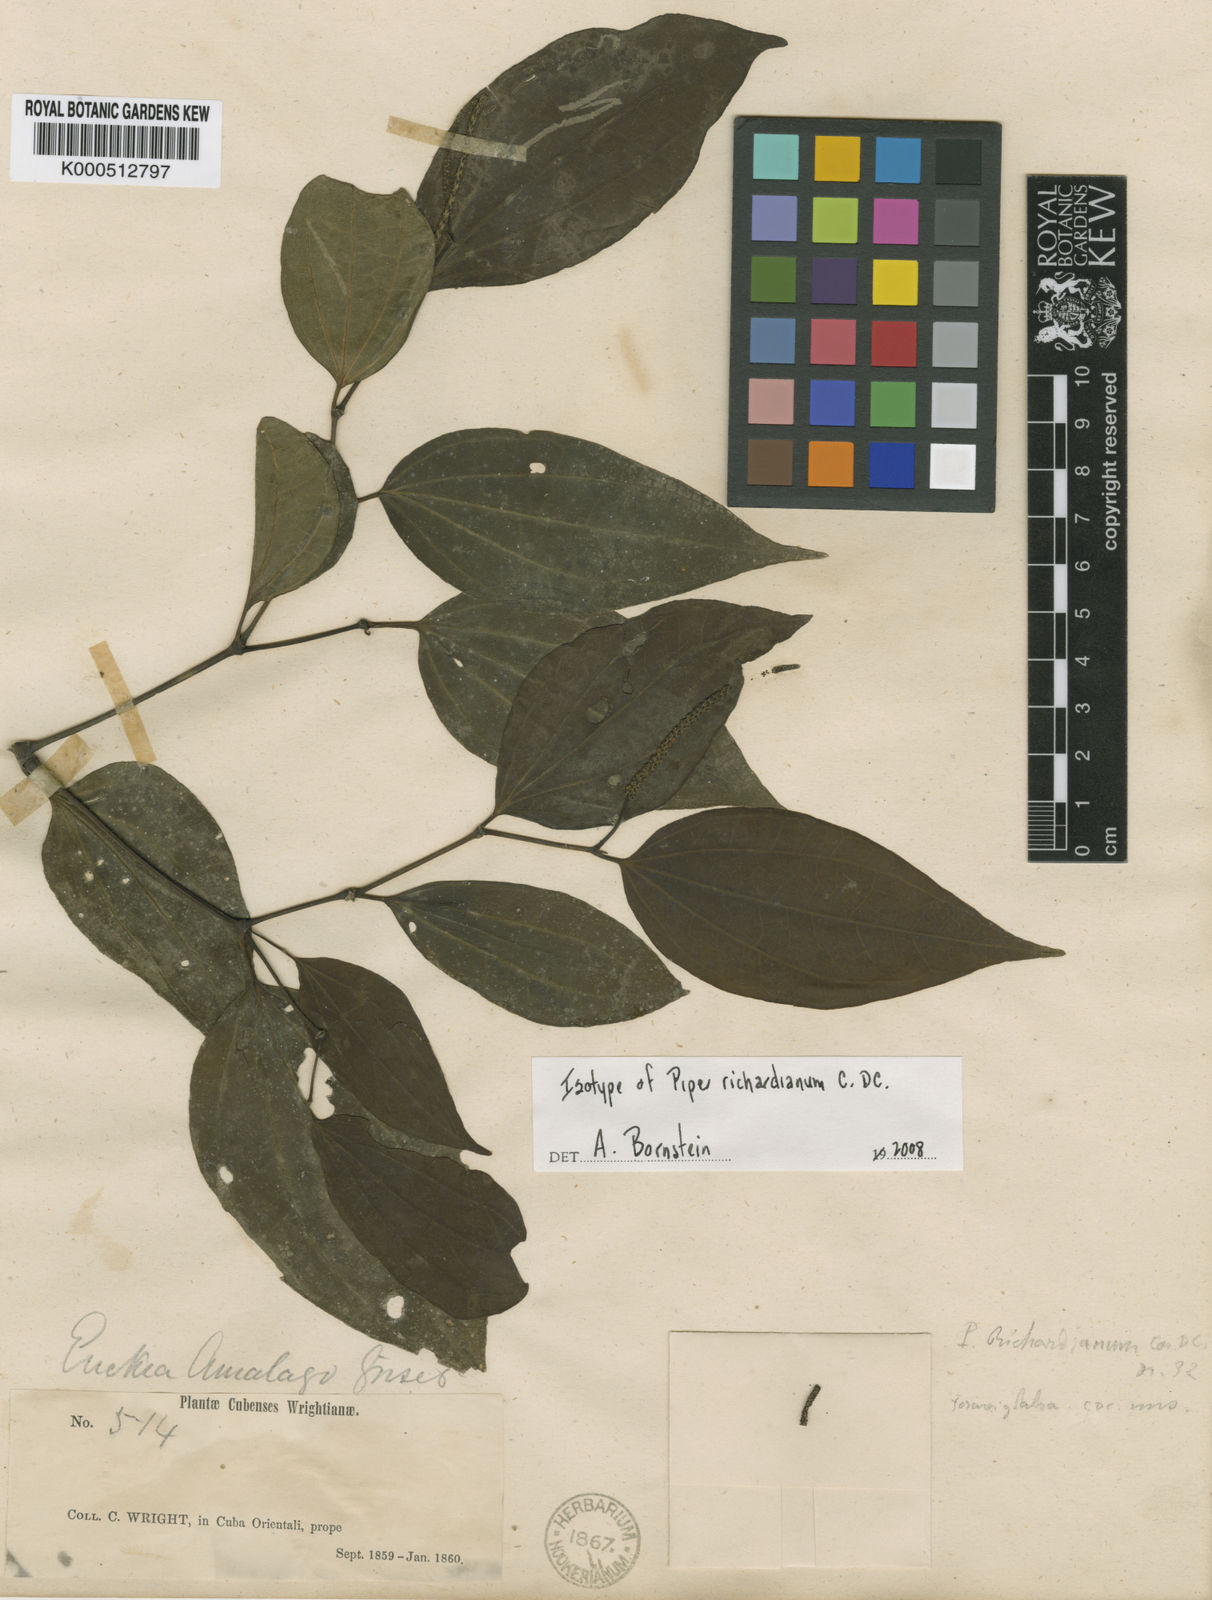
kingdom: Plantae
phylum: Tracheophyta
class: Magnoliopsida
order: Piperales
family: Piperaceae
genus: Piper
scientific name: Piper amalago
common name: Pepper-elder
